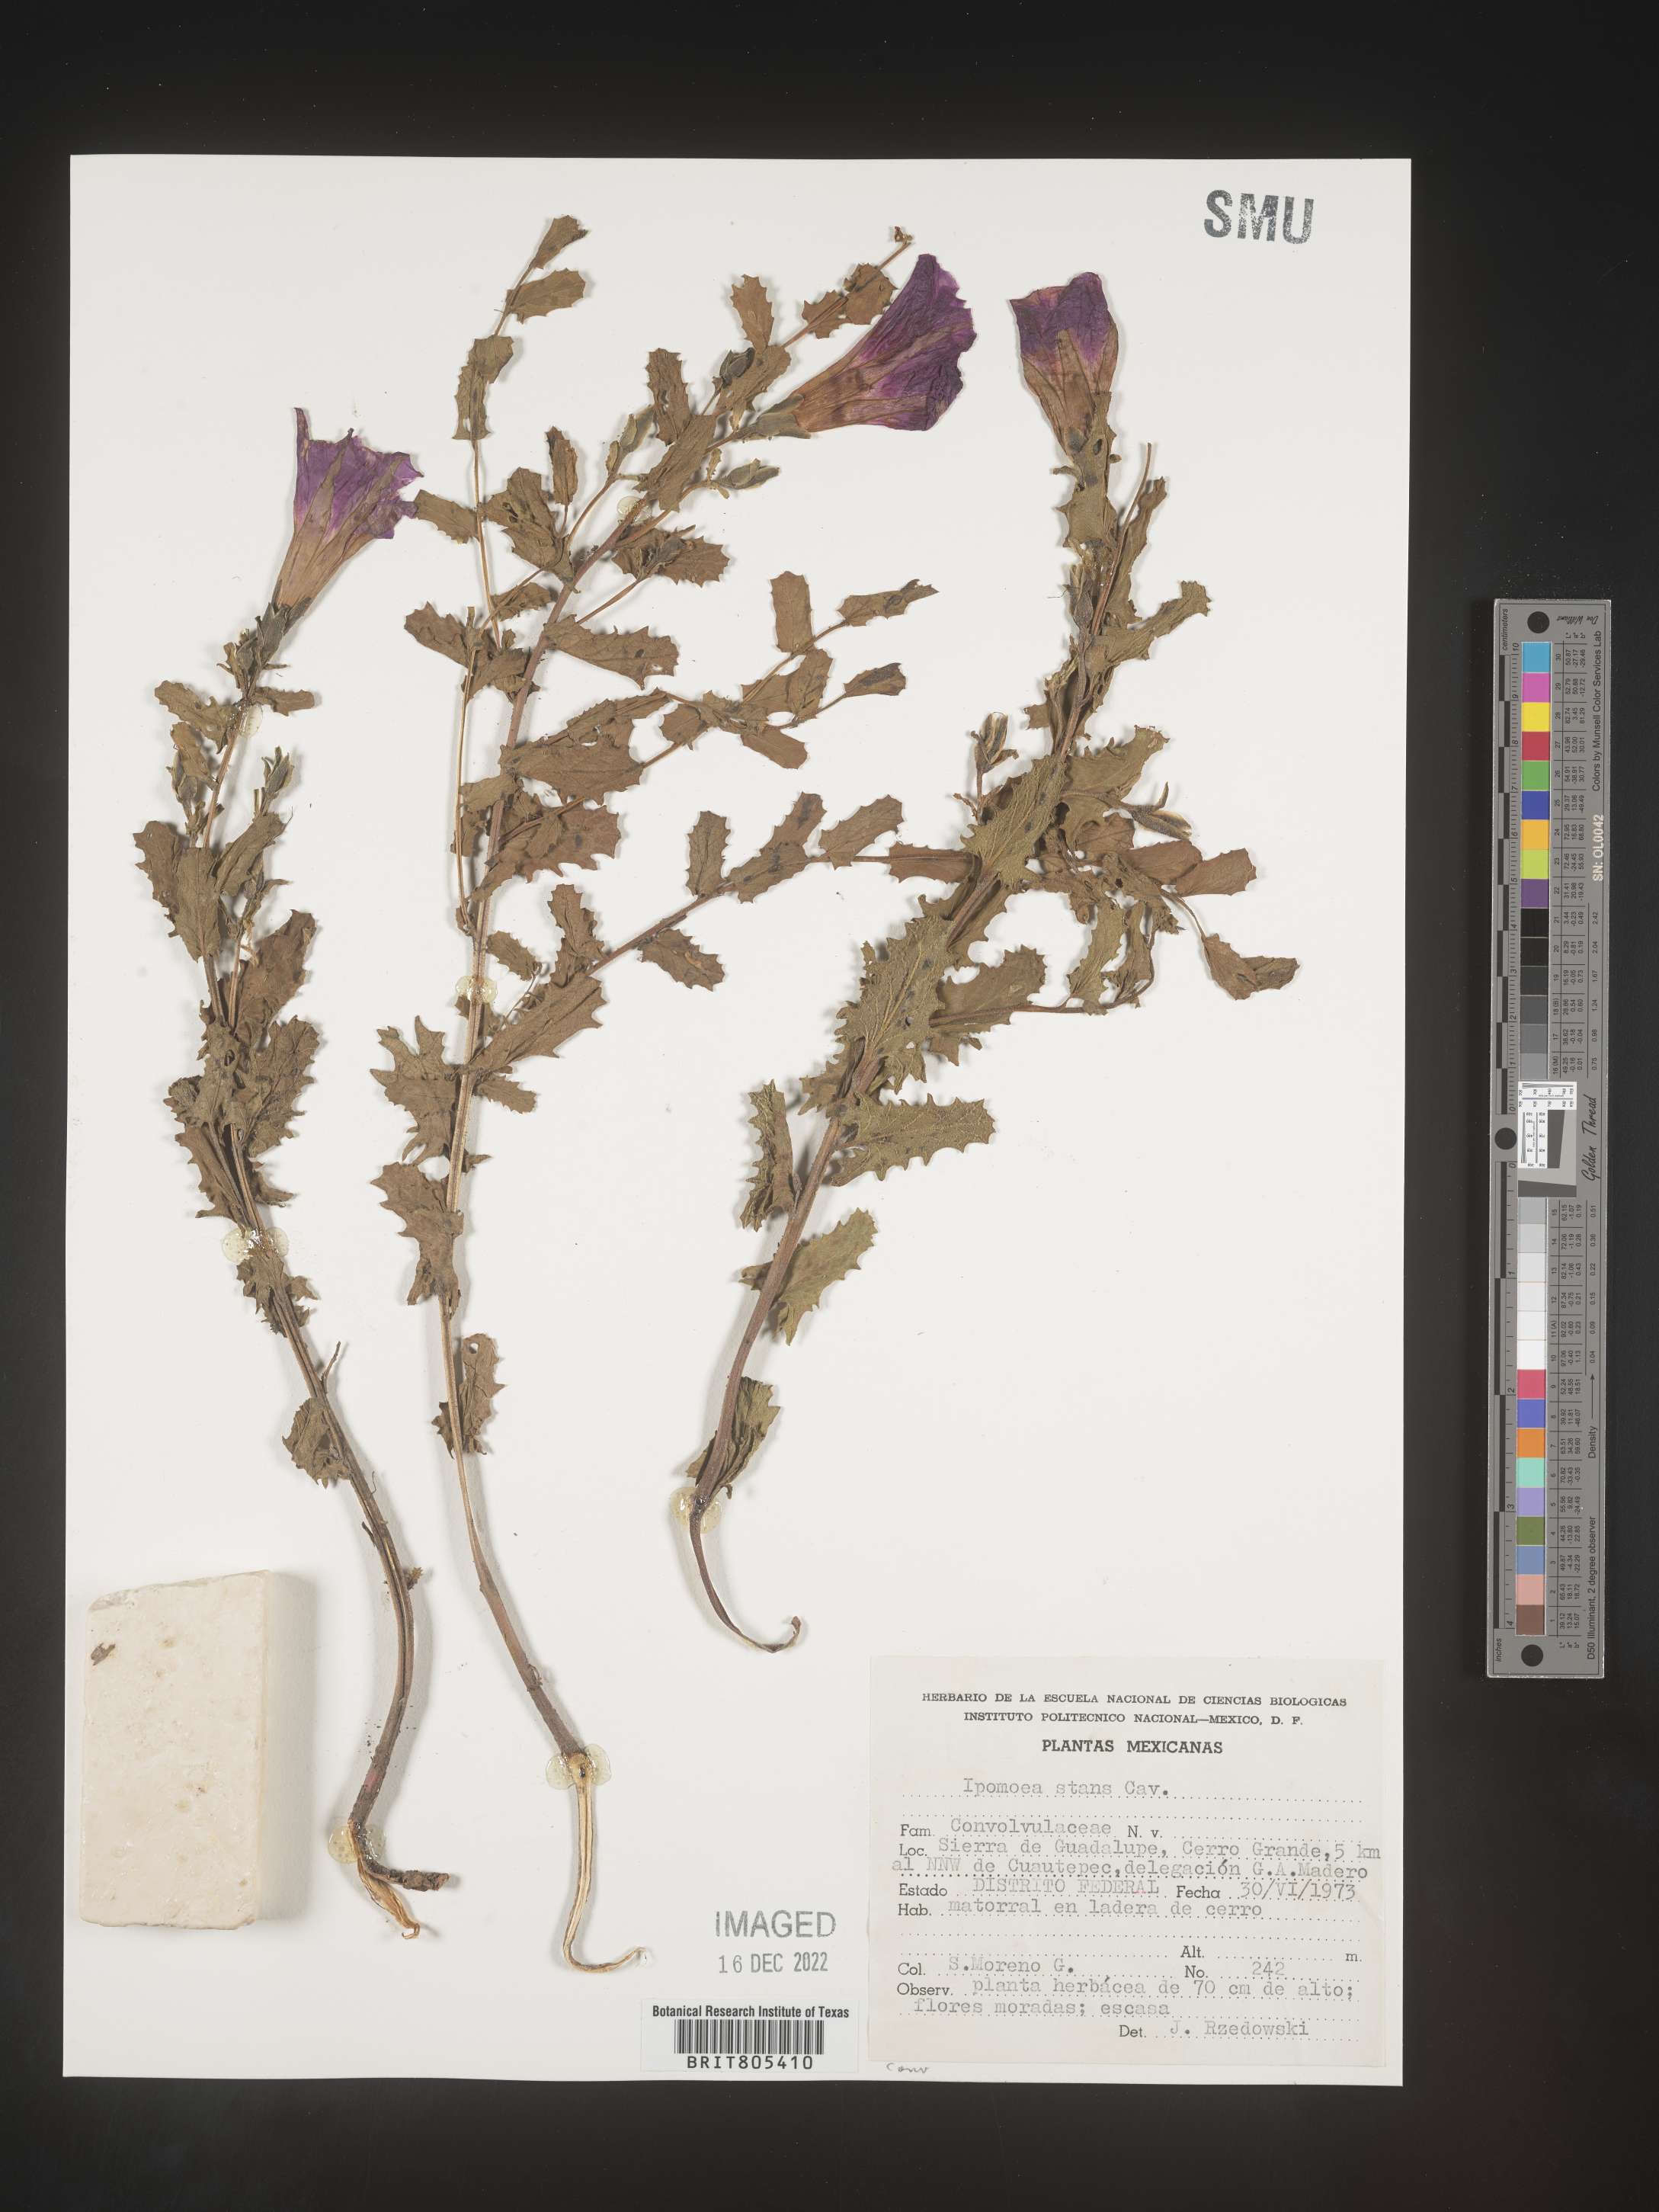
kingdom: Plantae
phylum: Tracheophyta
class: Magnoliopsida
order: Solanales
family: Convolvulaceae
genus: Ipomoea
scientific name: Ipomoea
